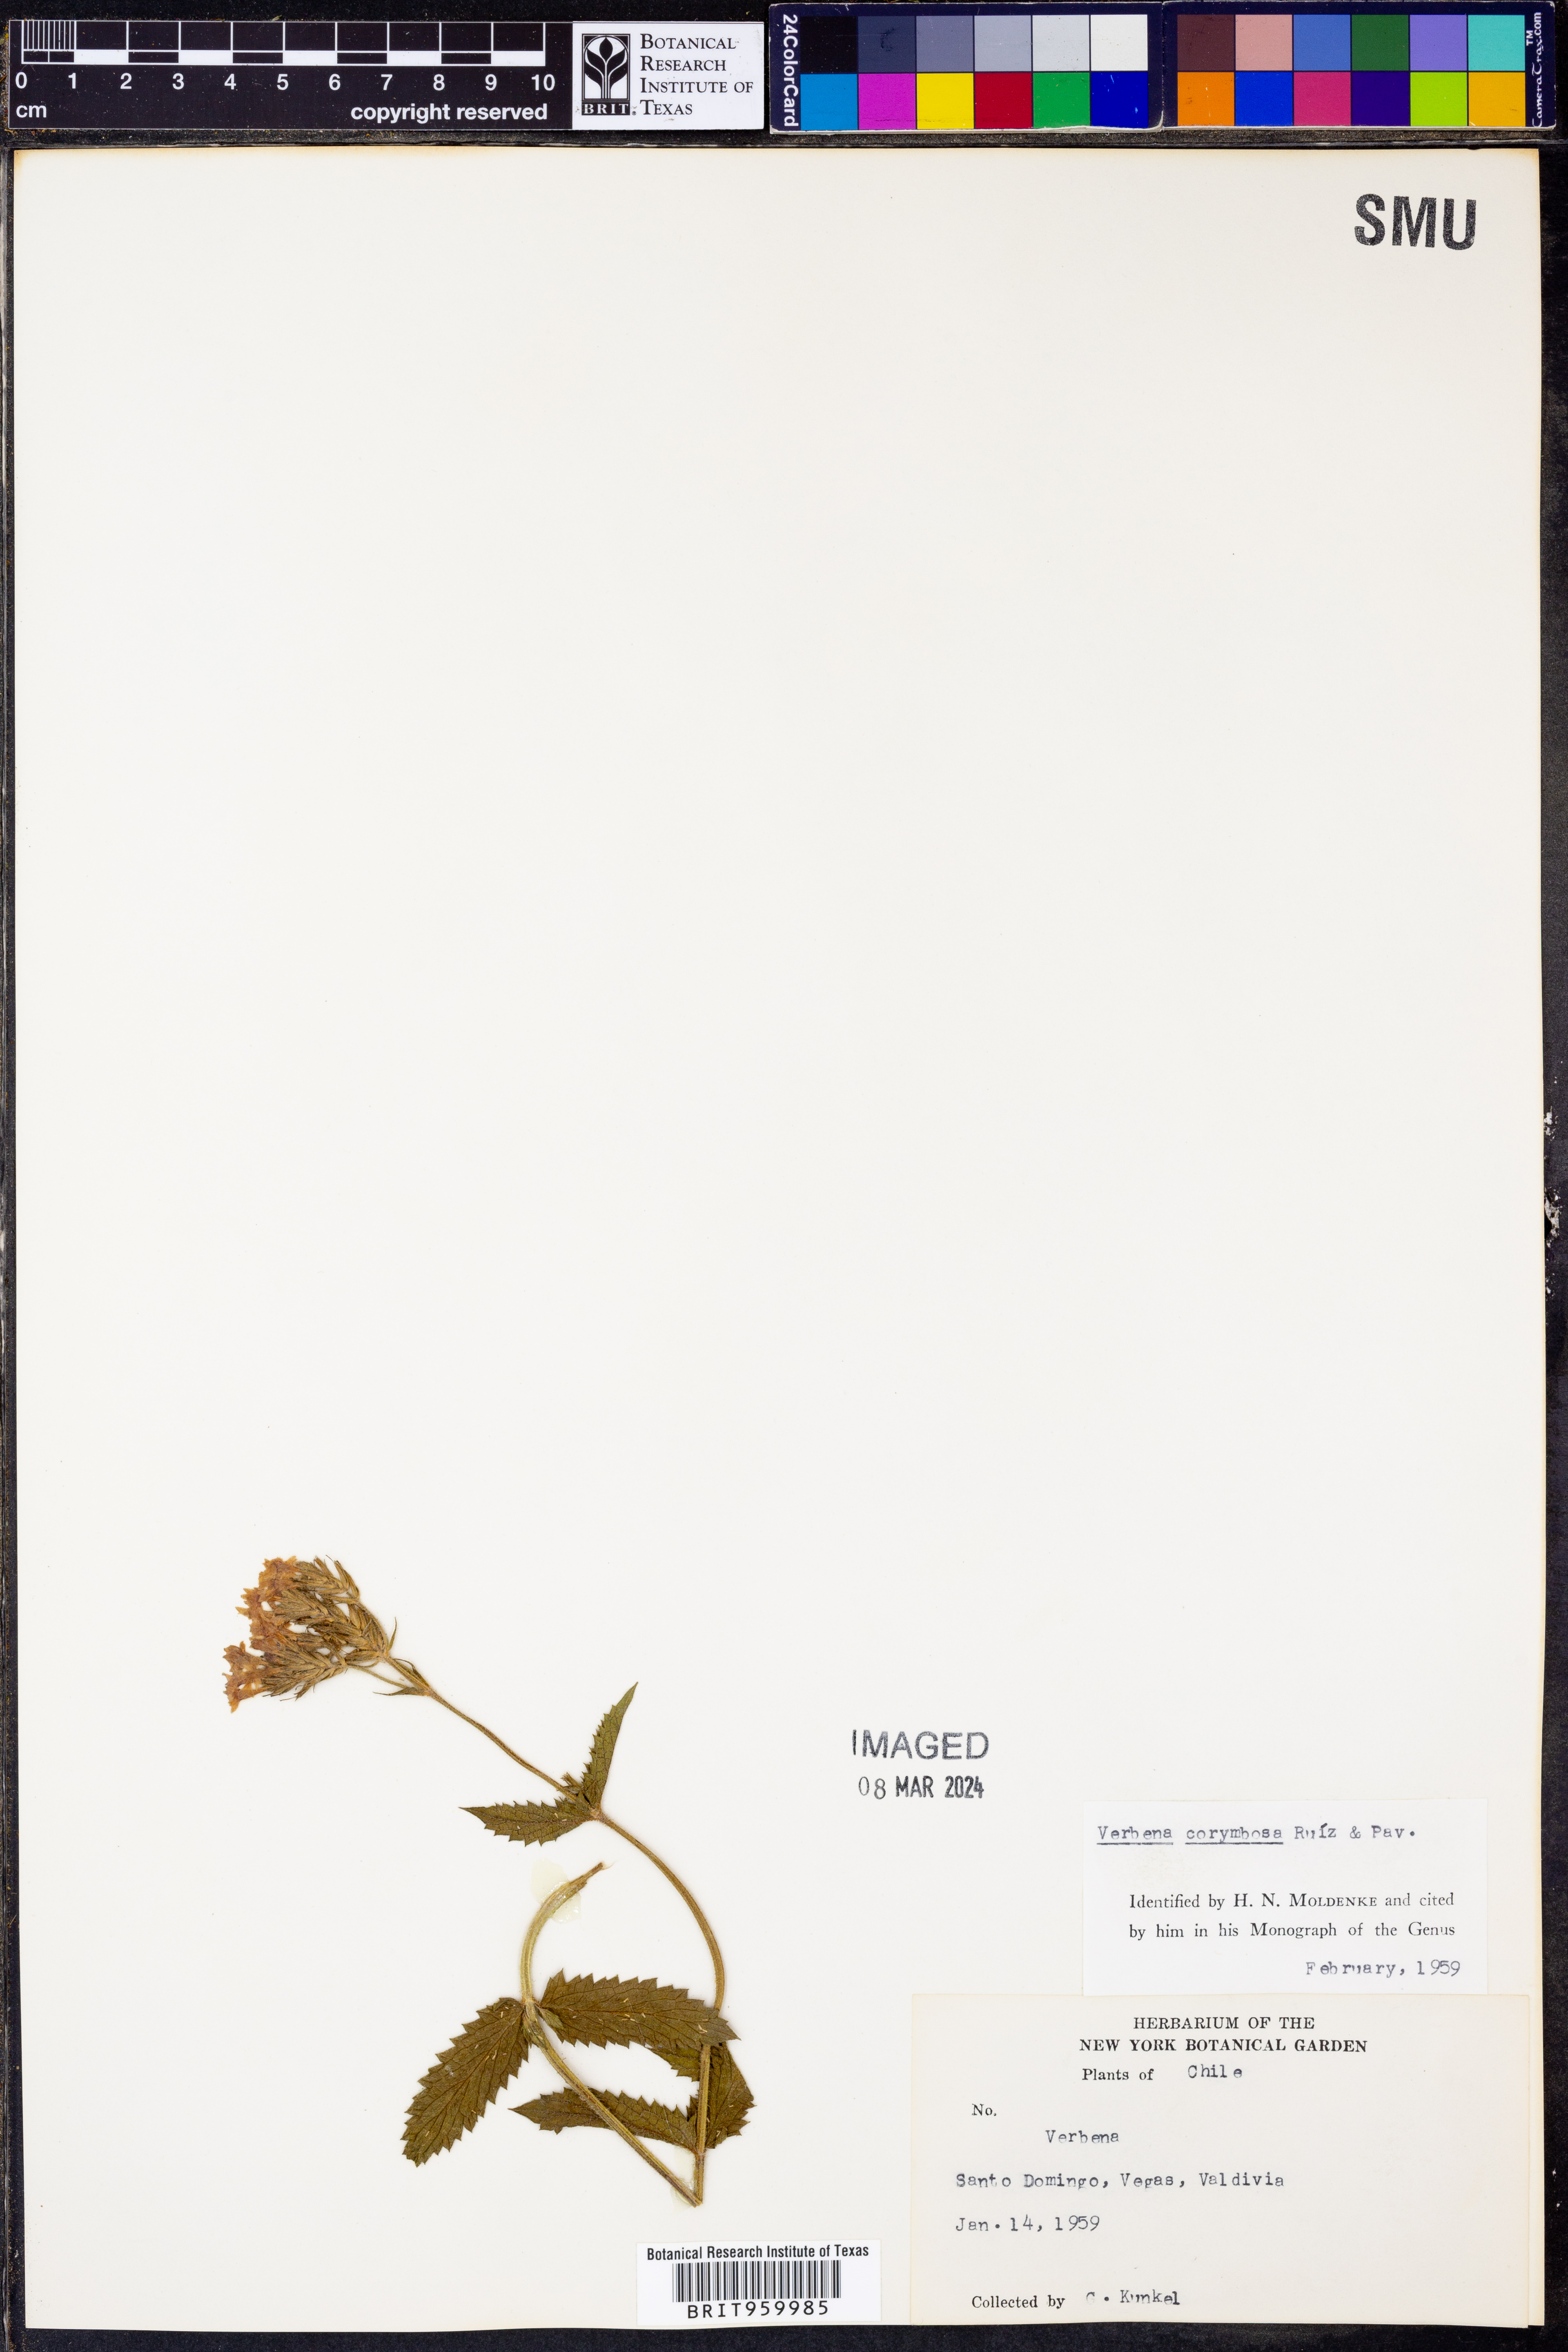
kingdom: Plantae
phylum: Tracheophyta
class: Magnoliopsida
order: Lamiales
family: Verbenaceae
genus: Verbena
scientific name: Verbena
